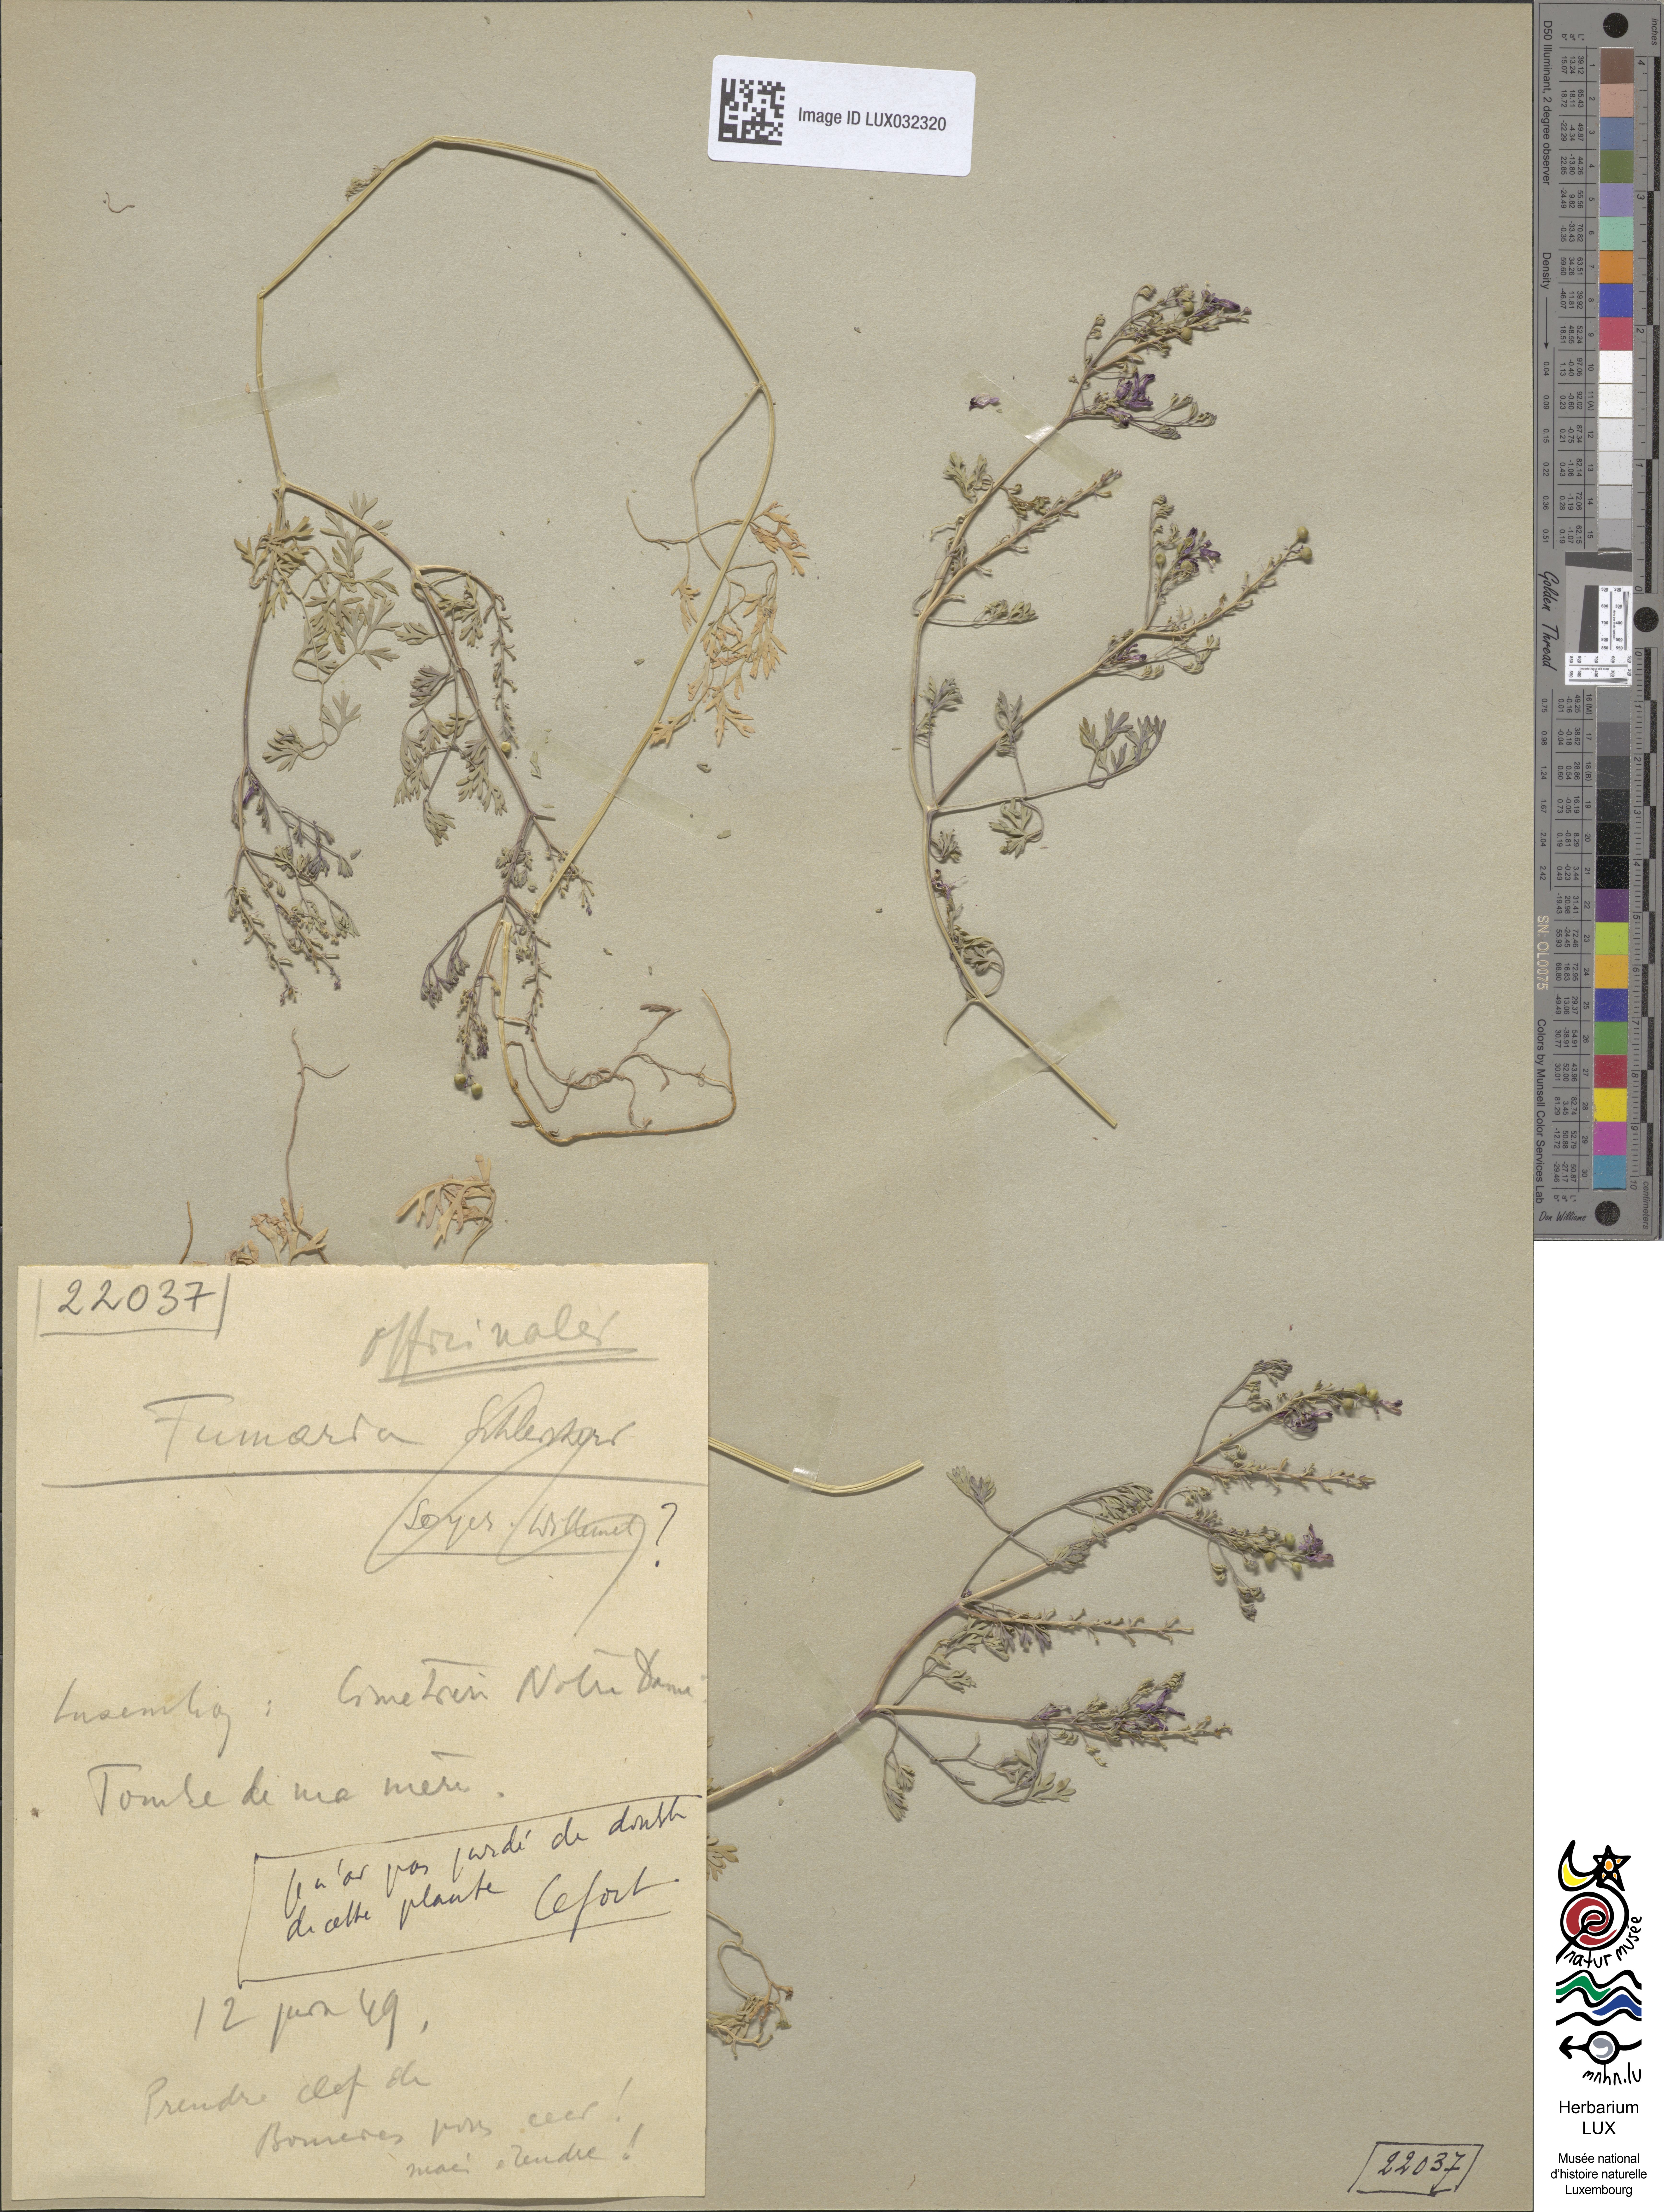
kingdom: Plantae
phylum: Tracheophyta
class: Magnoliopsida
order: Ranunculales
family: Papaveraceae
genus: Fumaria
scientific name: Fumaria officinalis
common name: Common fumitory
